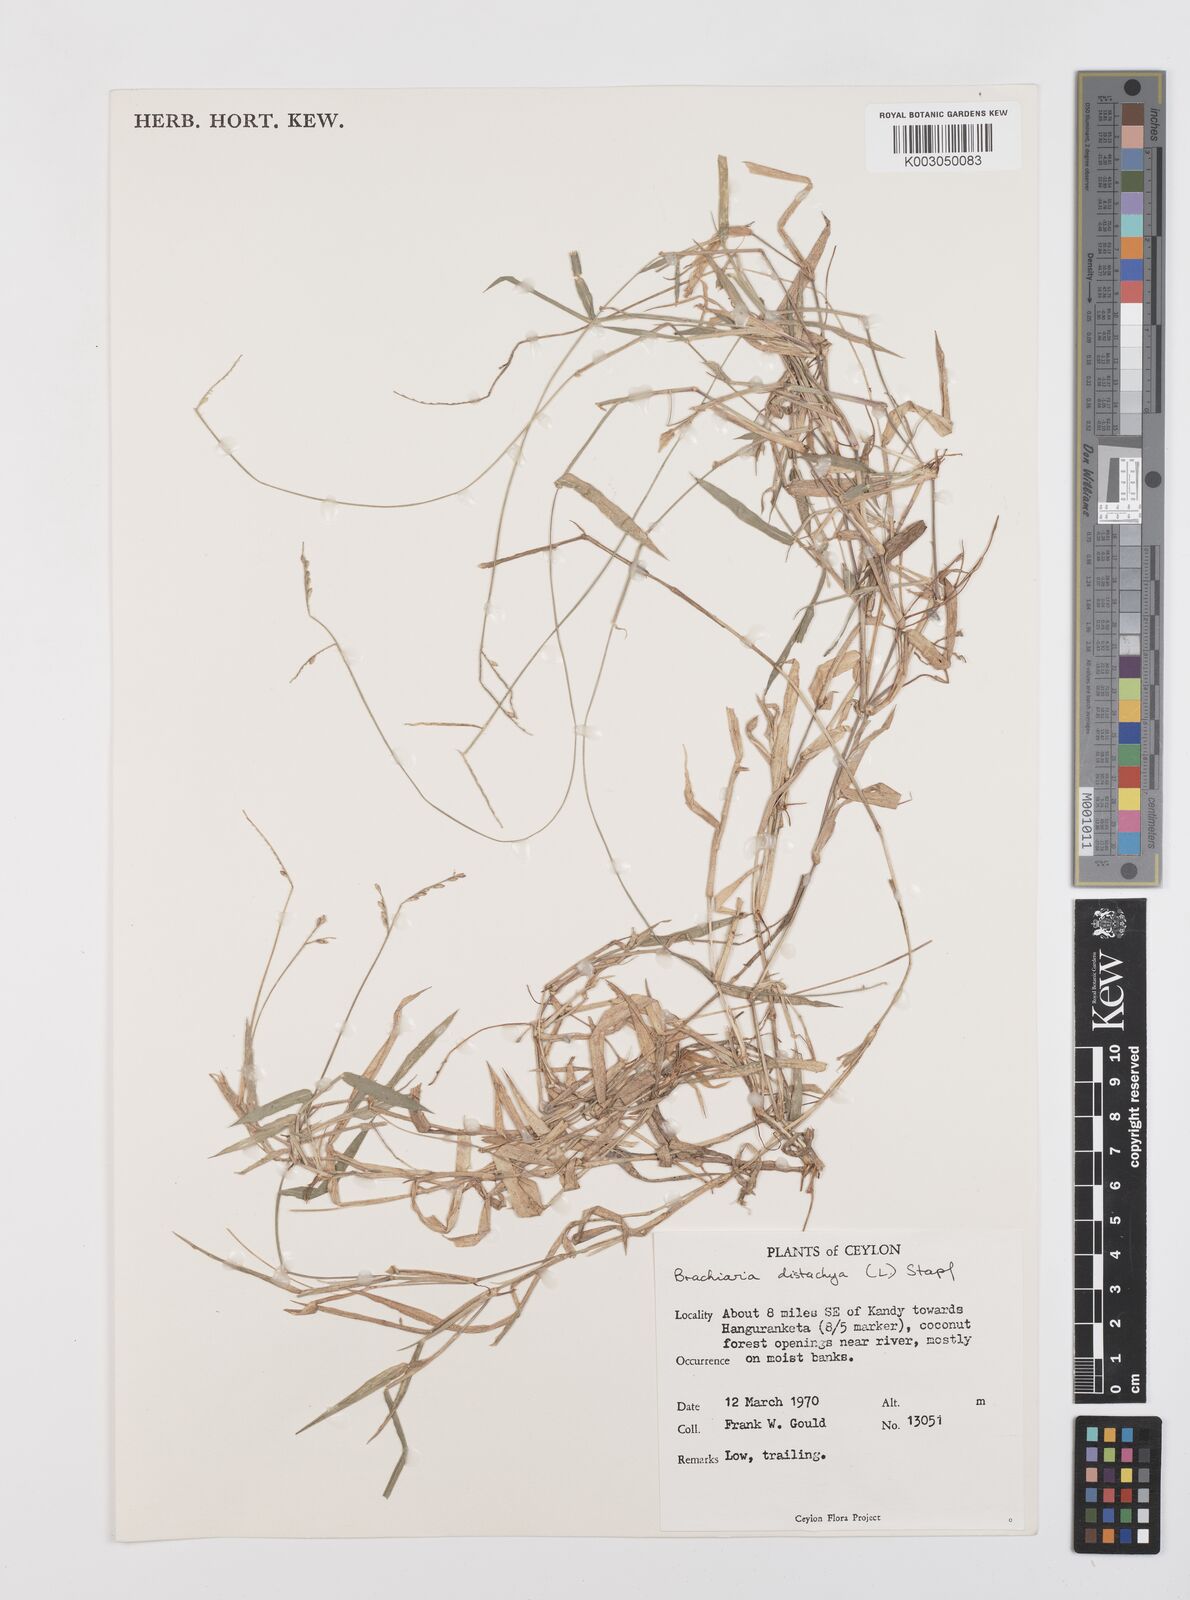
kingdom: Plantae
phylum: Tracheophyta
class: Liliopsida
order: Poales
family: Poaceae
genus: Urochloa
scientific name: Urochloa distachyos
